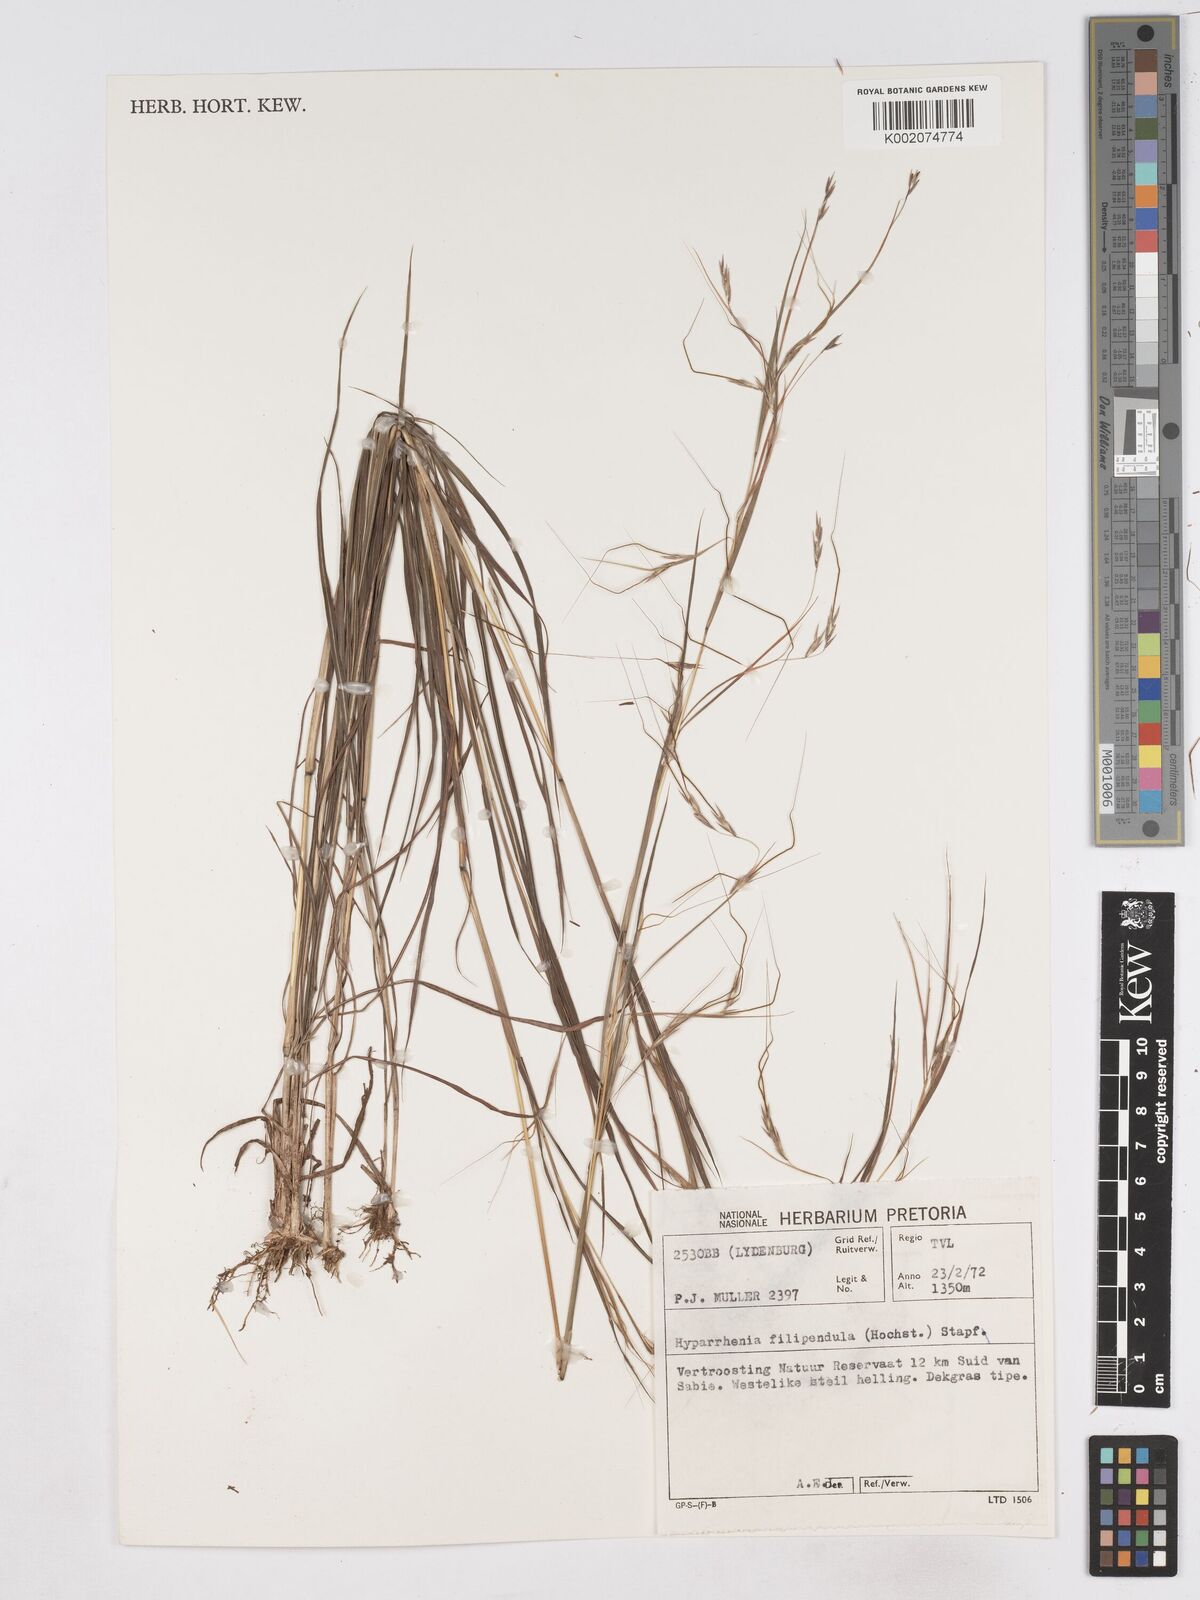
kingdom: Plantae
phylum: Tracheophyta
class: Liliopsida
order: Poales
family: Poaceae
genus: Hyparrhenia
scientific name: Hyparrhenia filipendula
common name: Tambookie grass
